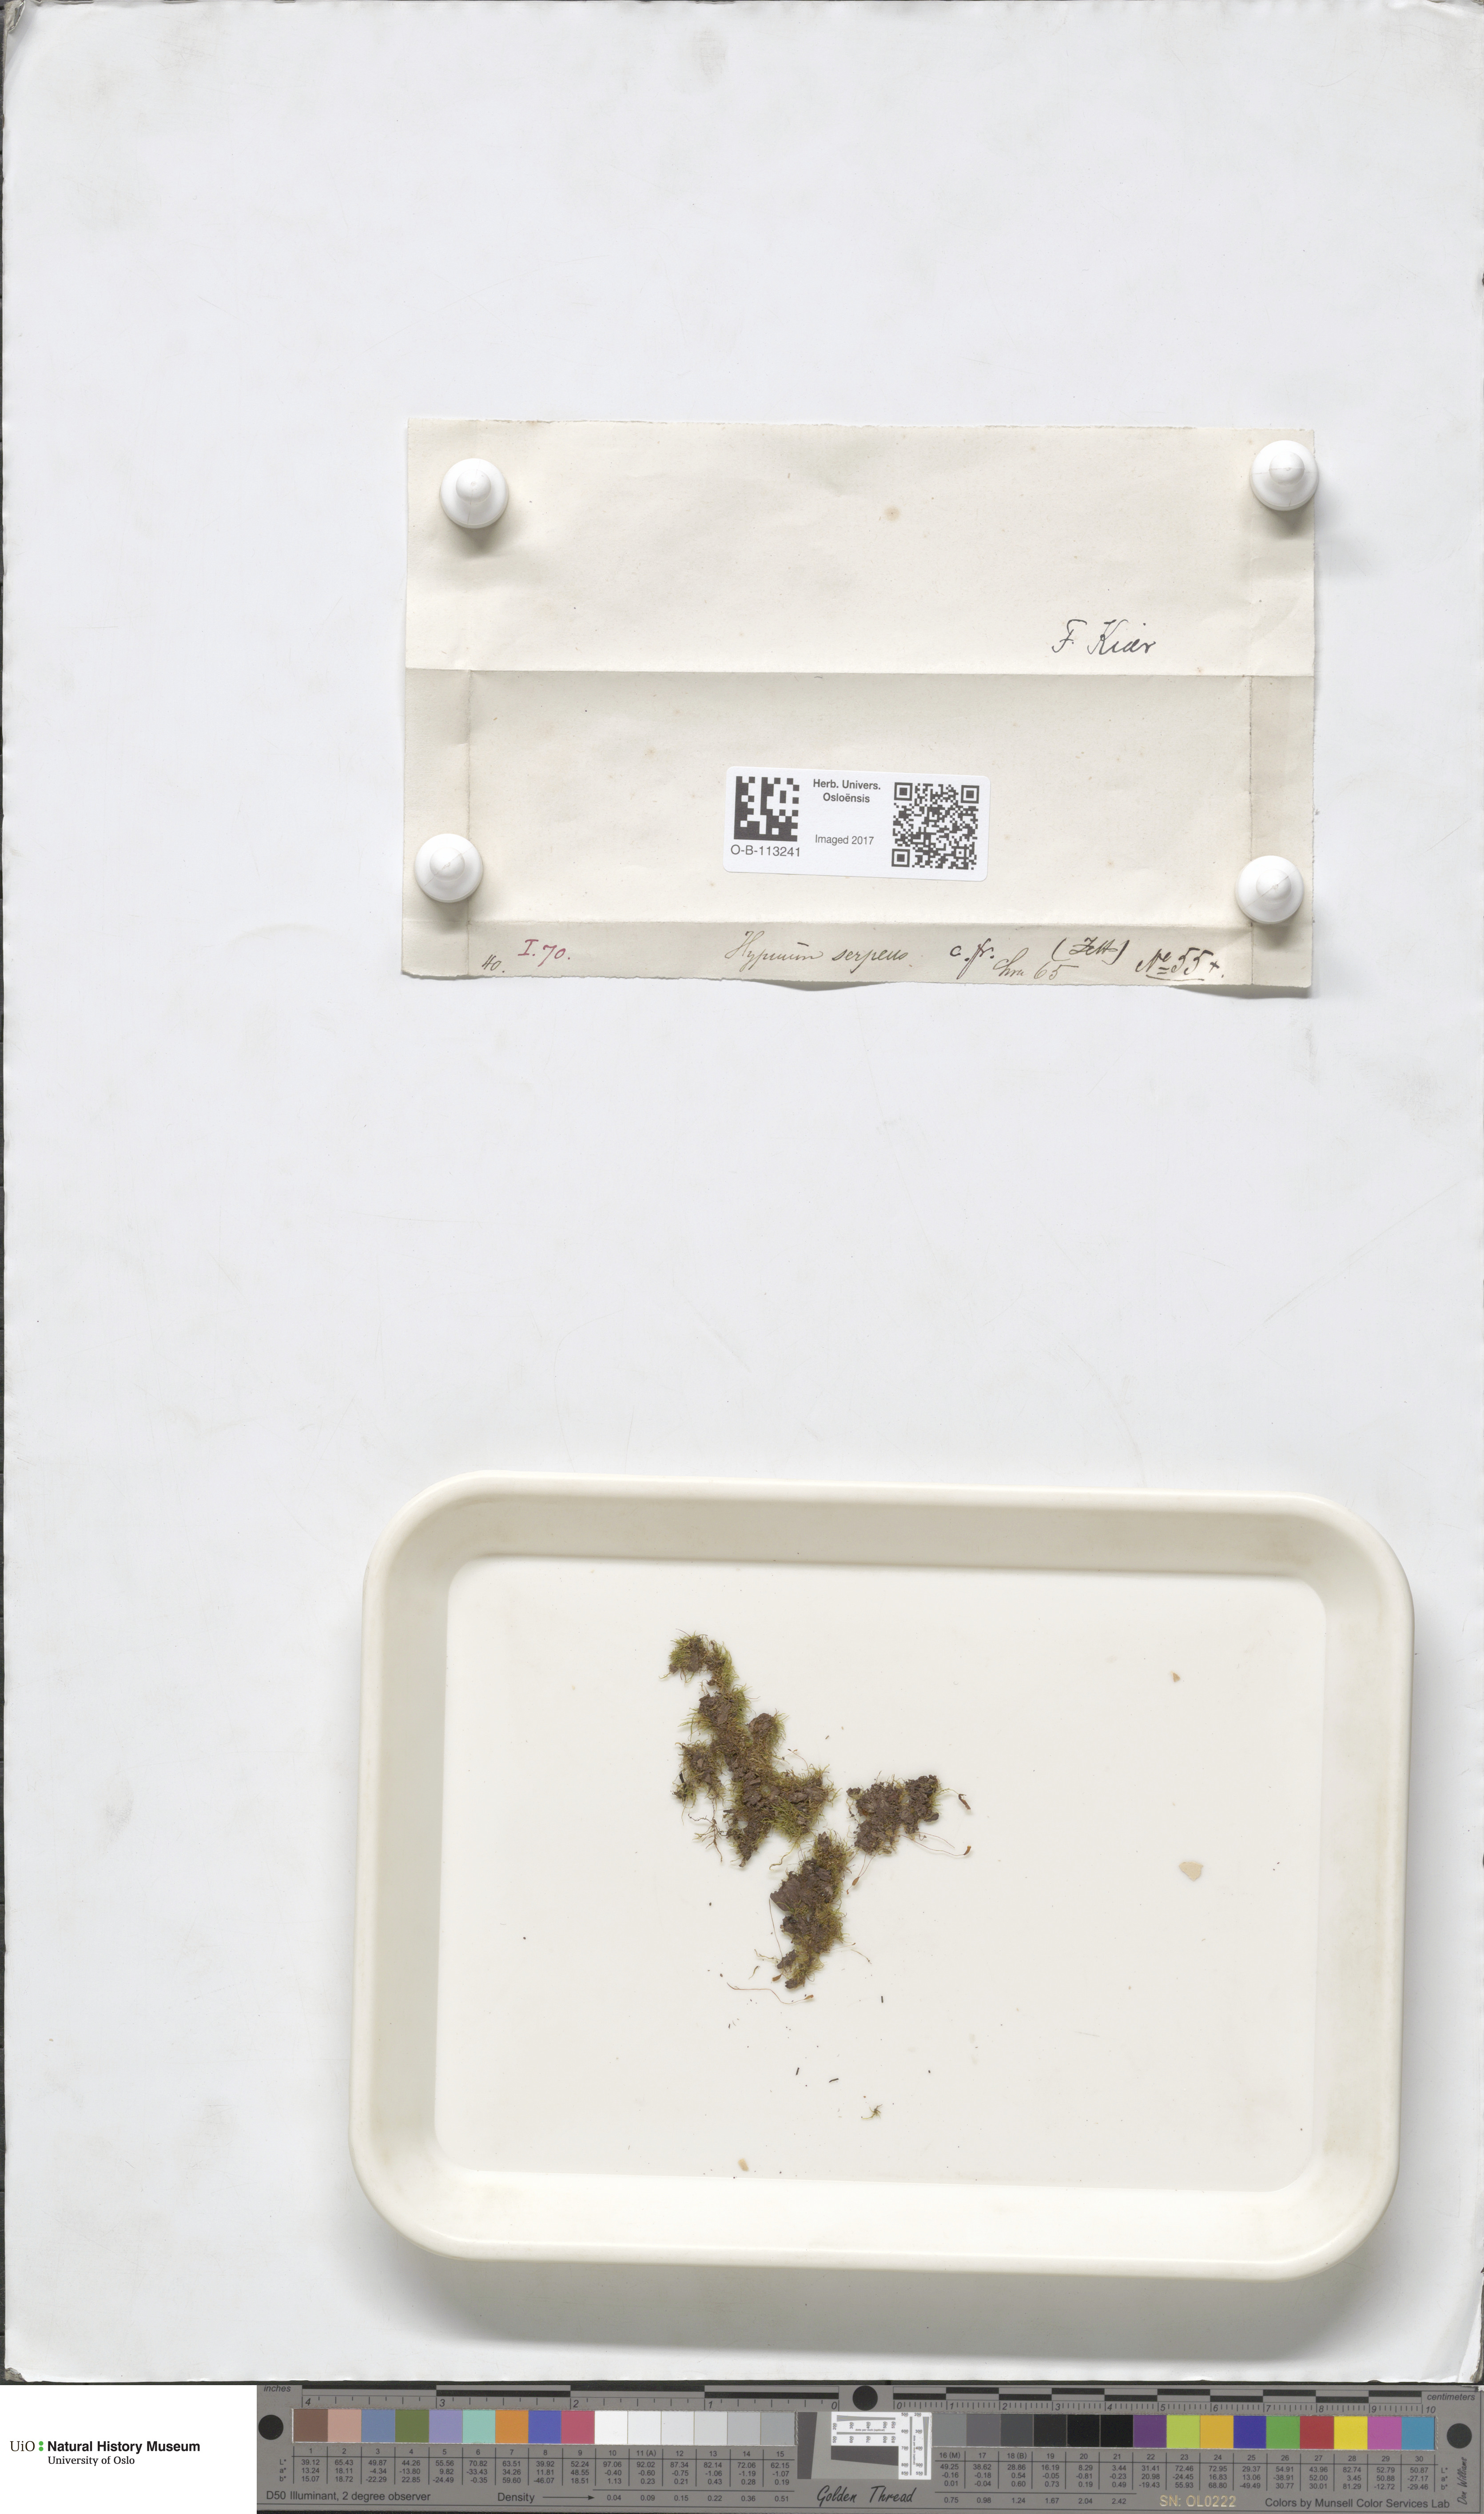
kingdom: Plantae
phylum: Bryophyta
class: Bryopsida
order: Hypnales
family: Amblystegiaceae
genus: Amblystegium
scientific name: Amblystegium serpens
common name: Jurkatzka's feather moss
